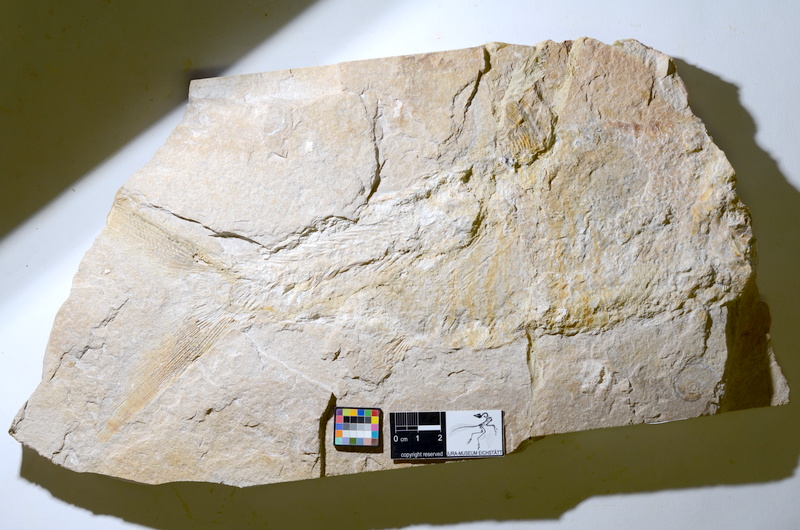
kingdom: Animalia
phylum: Chordata
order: Amiiformes
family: Caturidae
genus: Caturus
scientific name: Caturus
